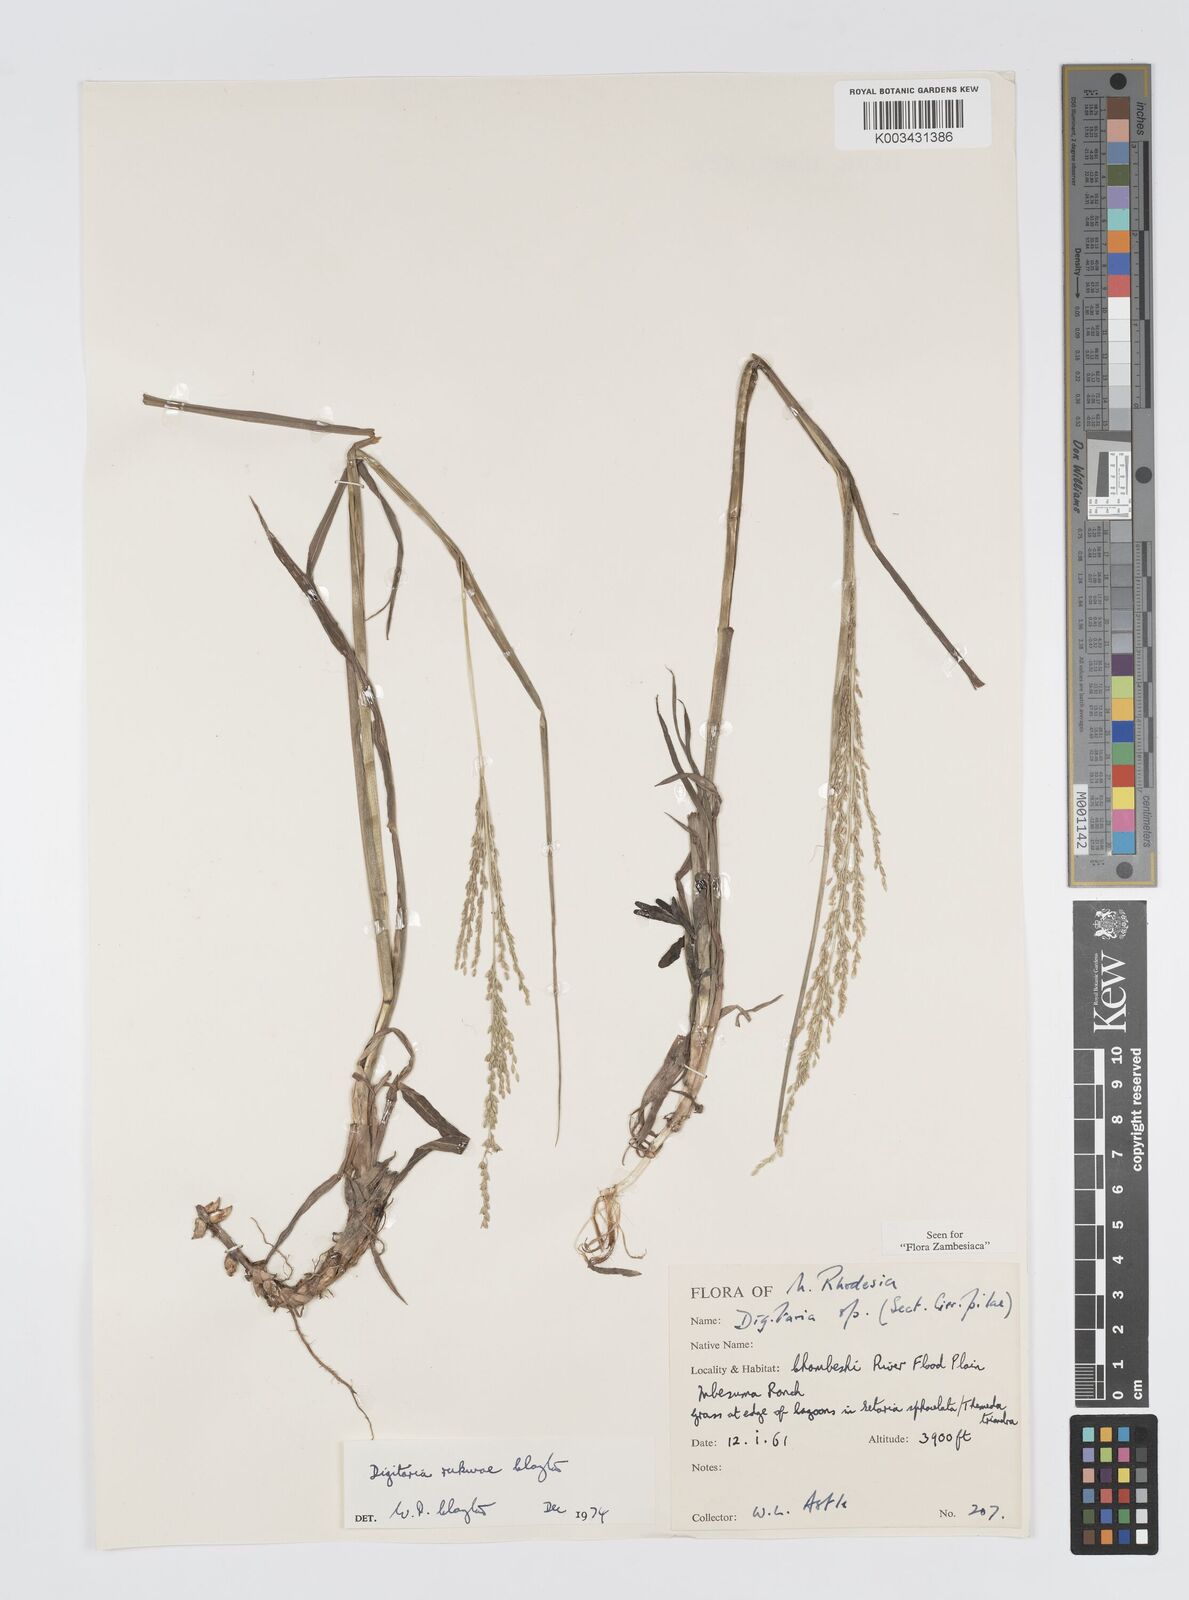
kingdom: Plantae
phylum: Tracheophyta
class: Liliopsida
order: Poales
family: Poaceae
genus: Digitaria
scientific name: Digitaria rukwae
